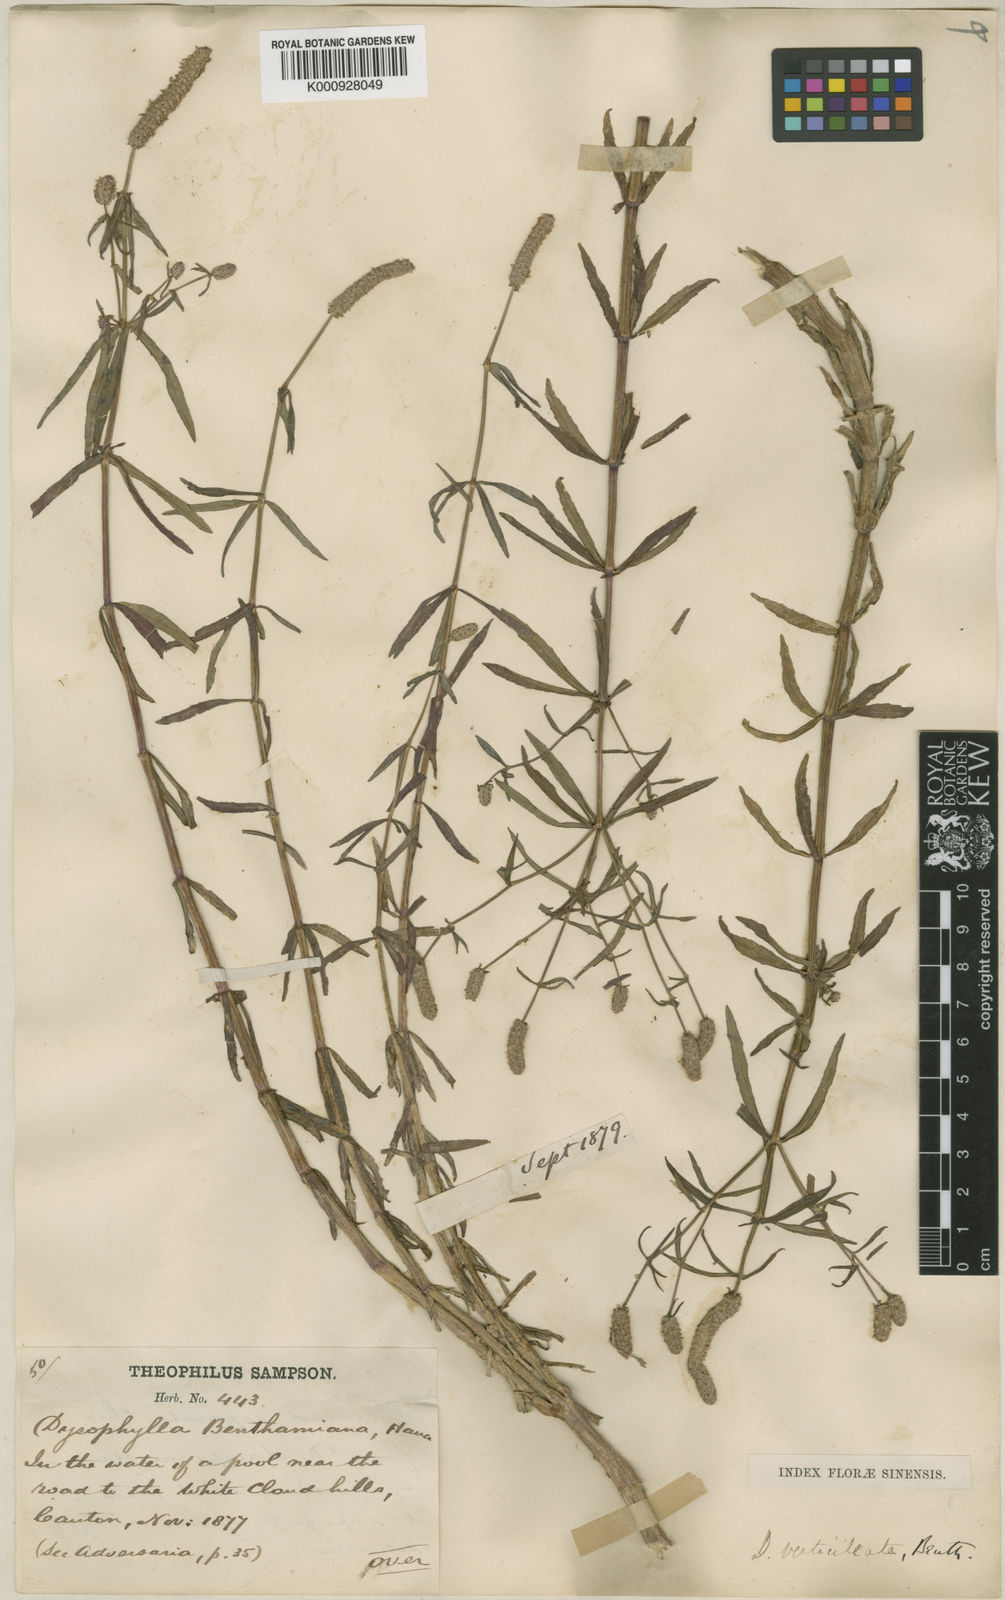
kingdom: Plantae
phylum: Tracheophyta
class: Magnoliopsida
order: Lamiales
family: Lamiaceae
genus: Pogostemon
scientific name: Pogostemon stellatus
